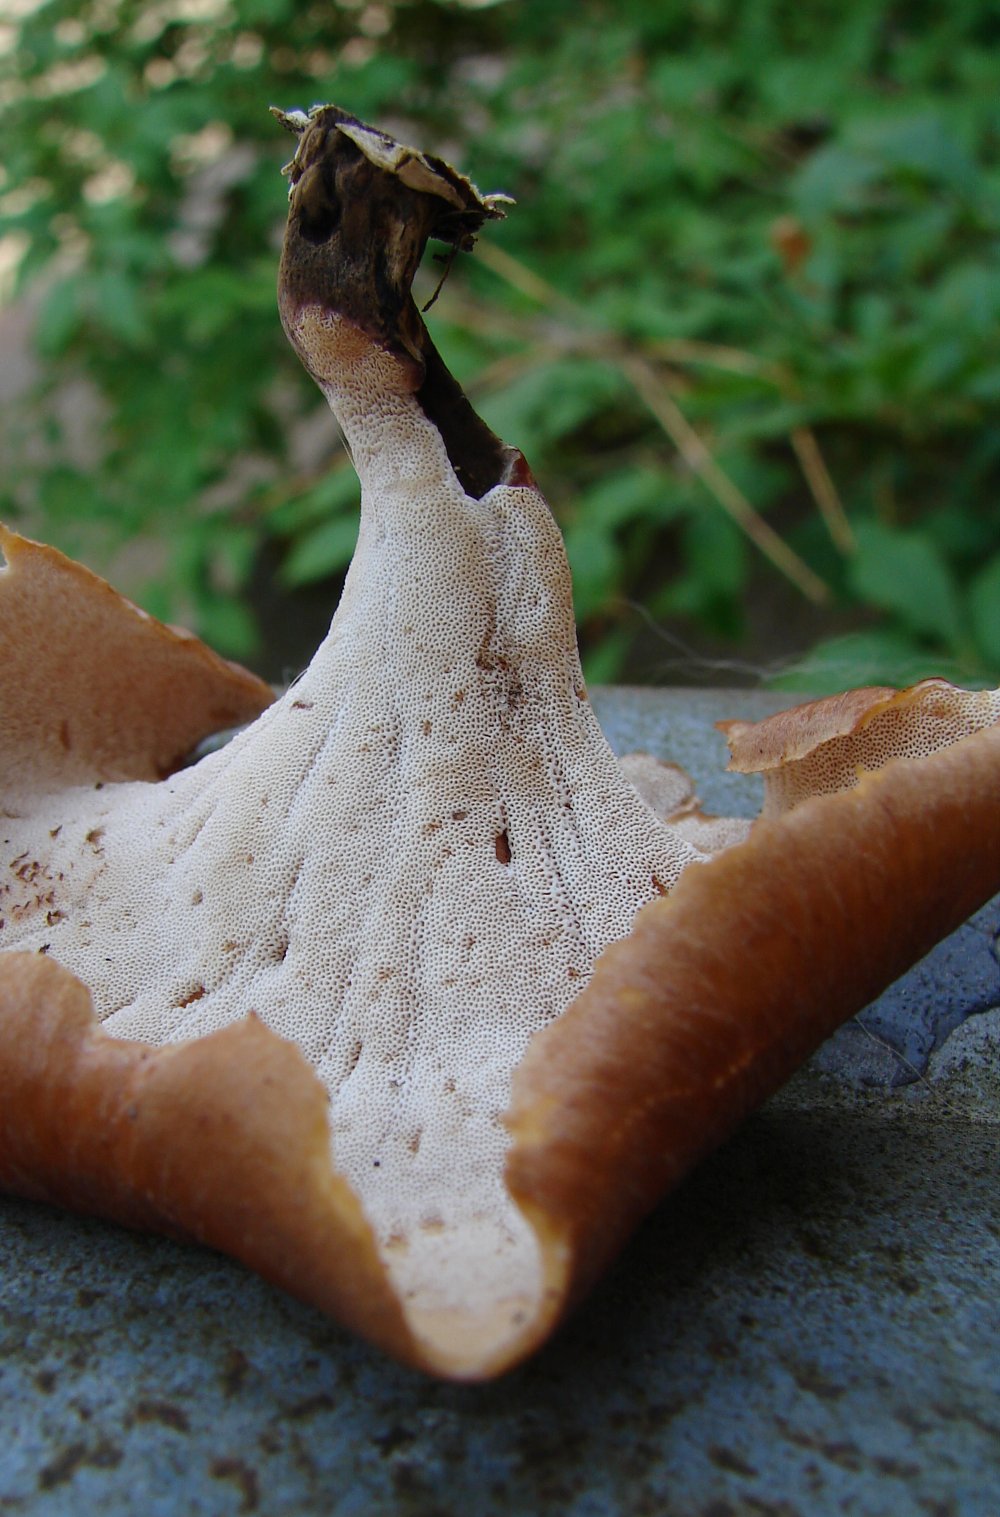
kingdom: Fungi
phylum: Basidiomycota
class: Agaricomycetes
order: Polyporales
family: Polyporaceae
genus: Picipes
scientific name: Picipes tubaeformis
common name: trompet-stilkporesvamp
